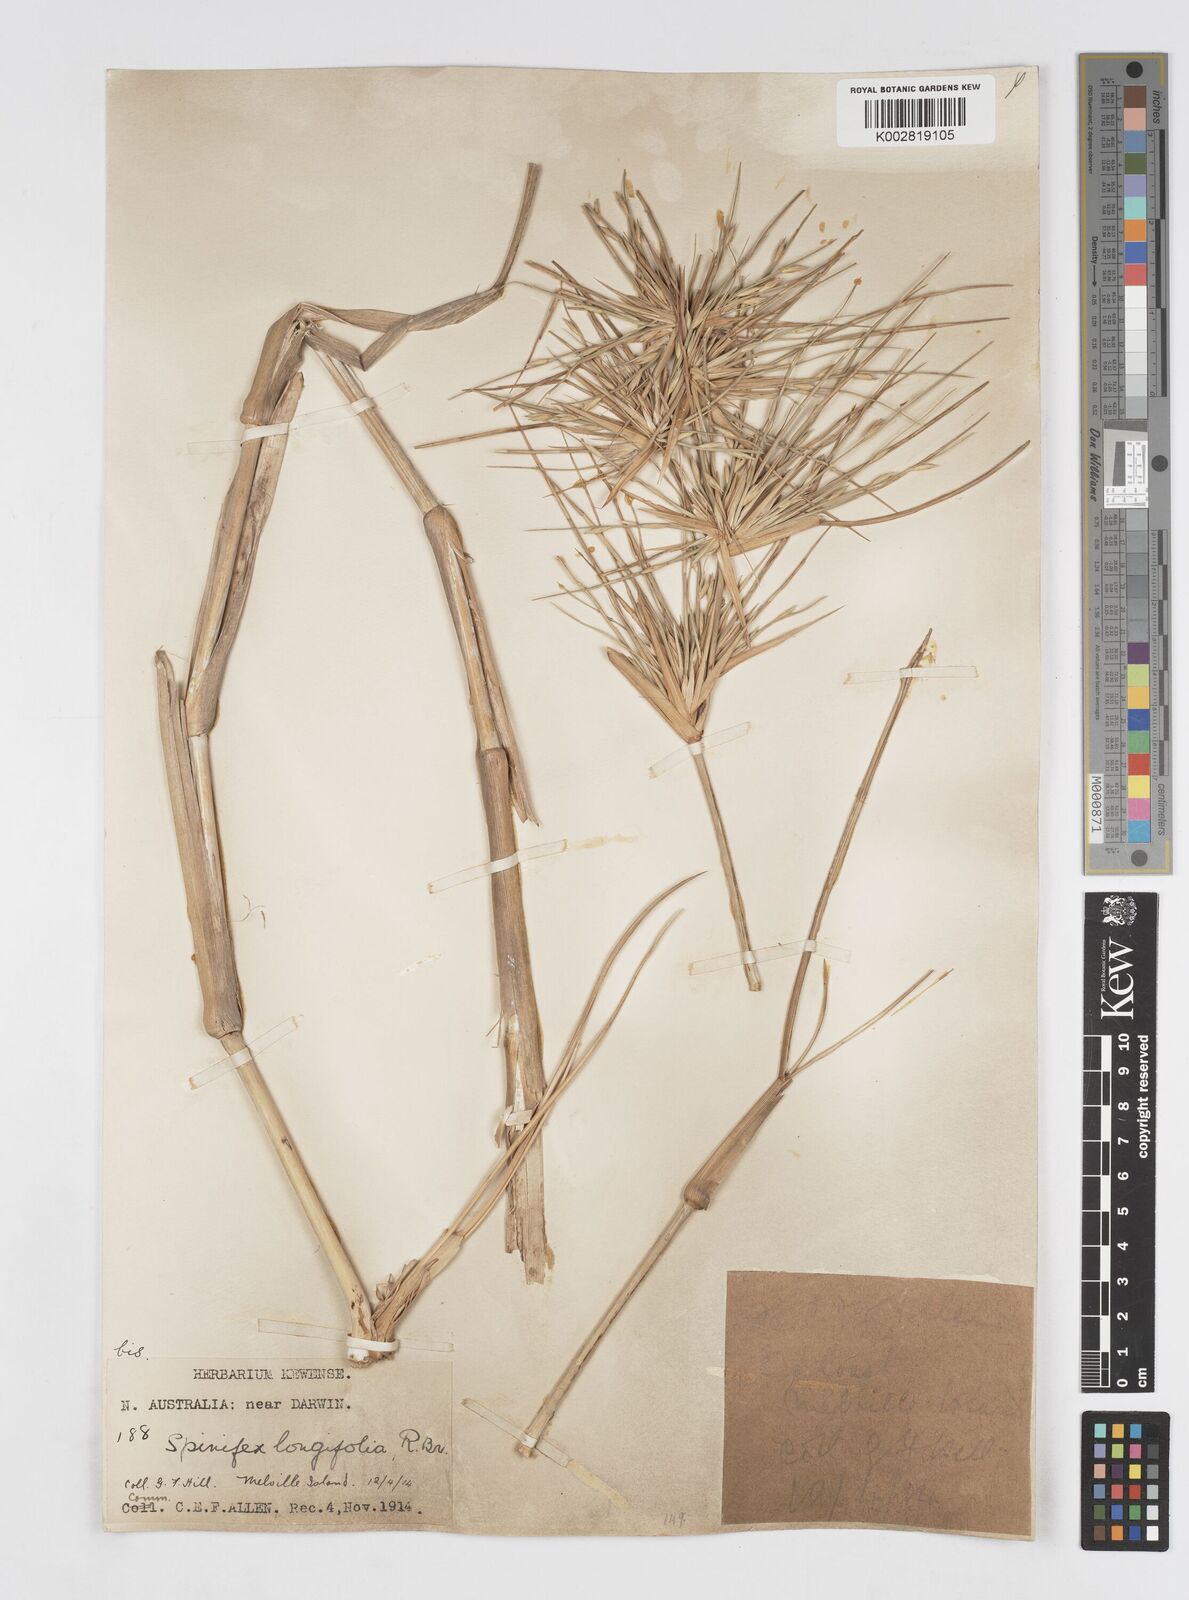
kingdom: Plantae
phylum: Tracheophyta
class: Liliopsida
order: Poales
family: Poaceae
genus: Spinifex
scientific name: Spinifex longifolius
